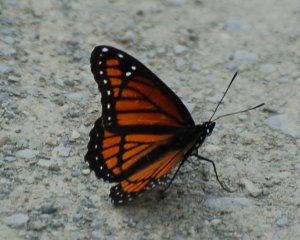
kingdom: Animalia
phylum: Arthropoda
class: Insecta
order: Lepidoptera
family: Nymphalidae
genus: Limenitis
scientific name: Limenitis archippus
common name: Viceroy
